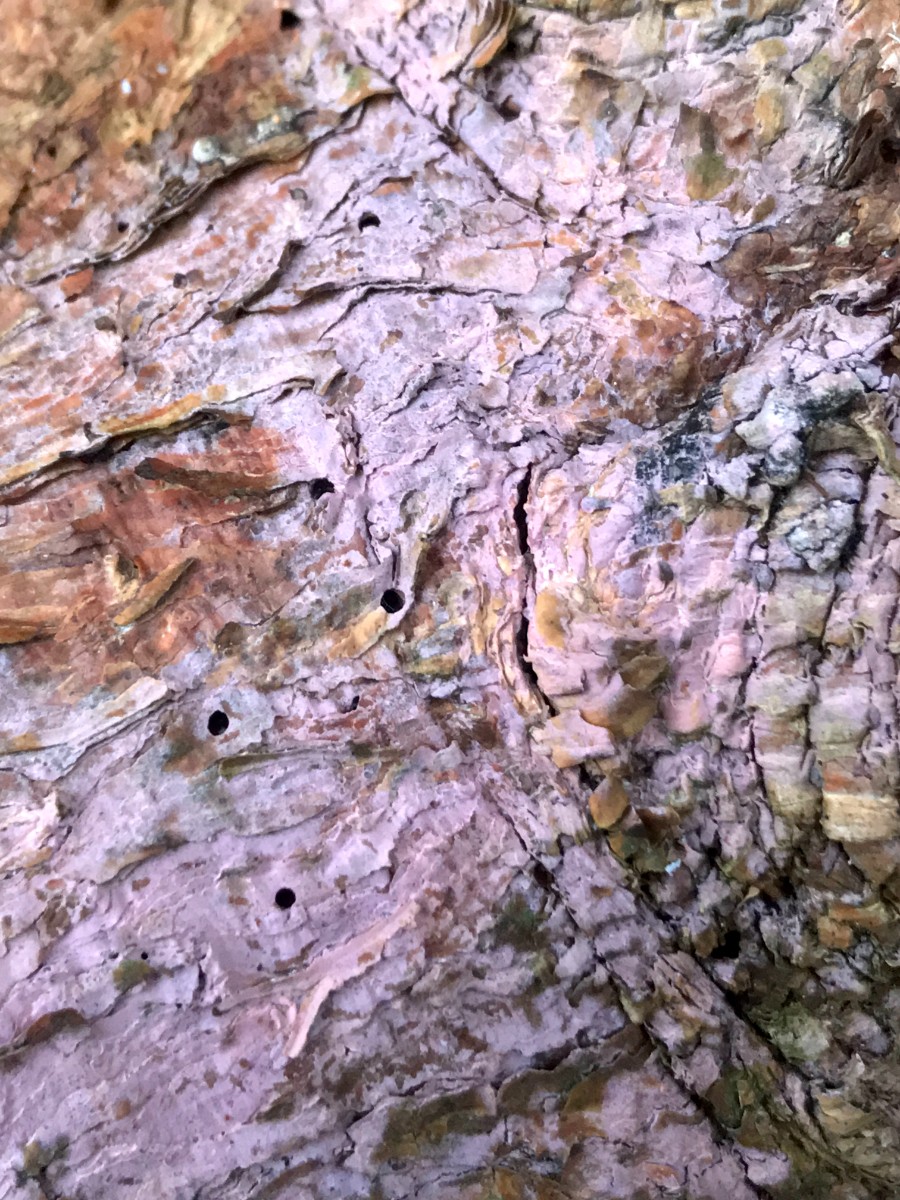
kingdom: Fungi
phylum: Basidiomycota
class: Agaricomycetes
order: Cantharellales
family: Tulasnellaceae
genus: Tulasnella
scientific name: Tulasnella violea
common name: violet ballonhinde
